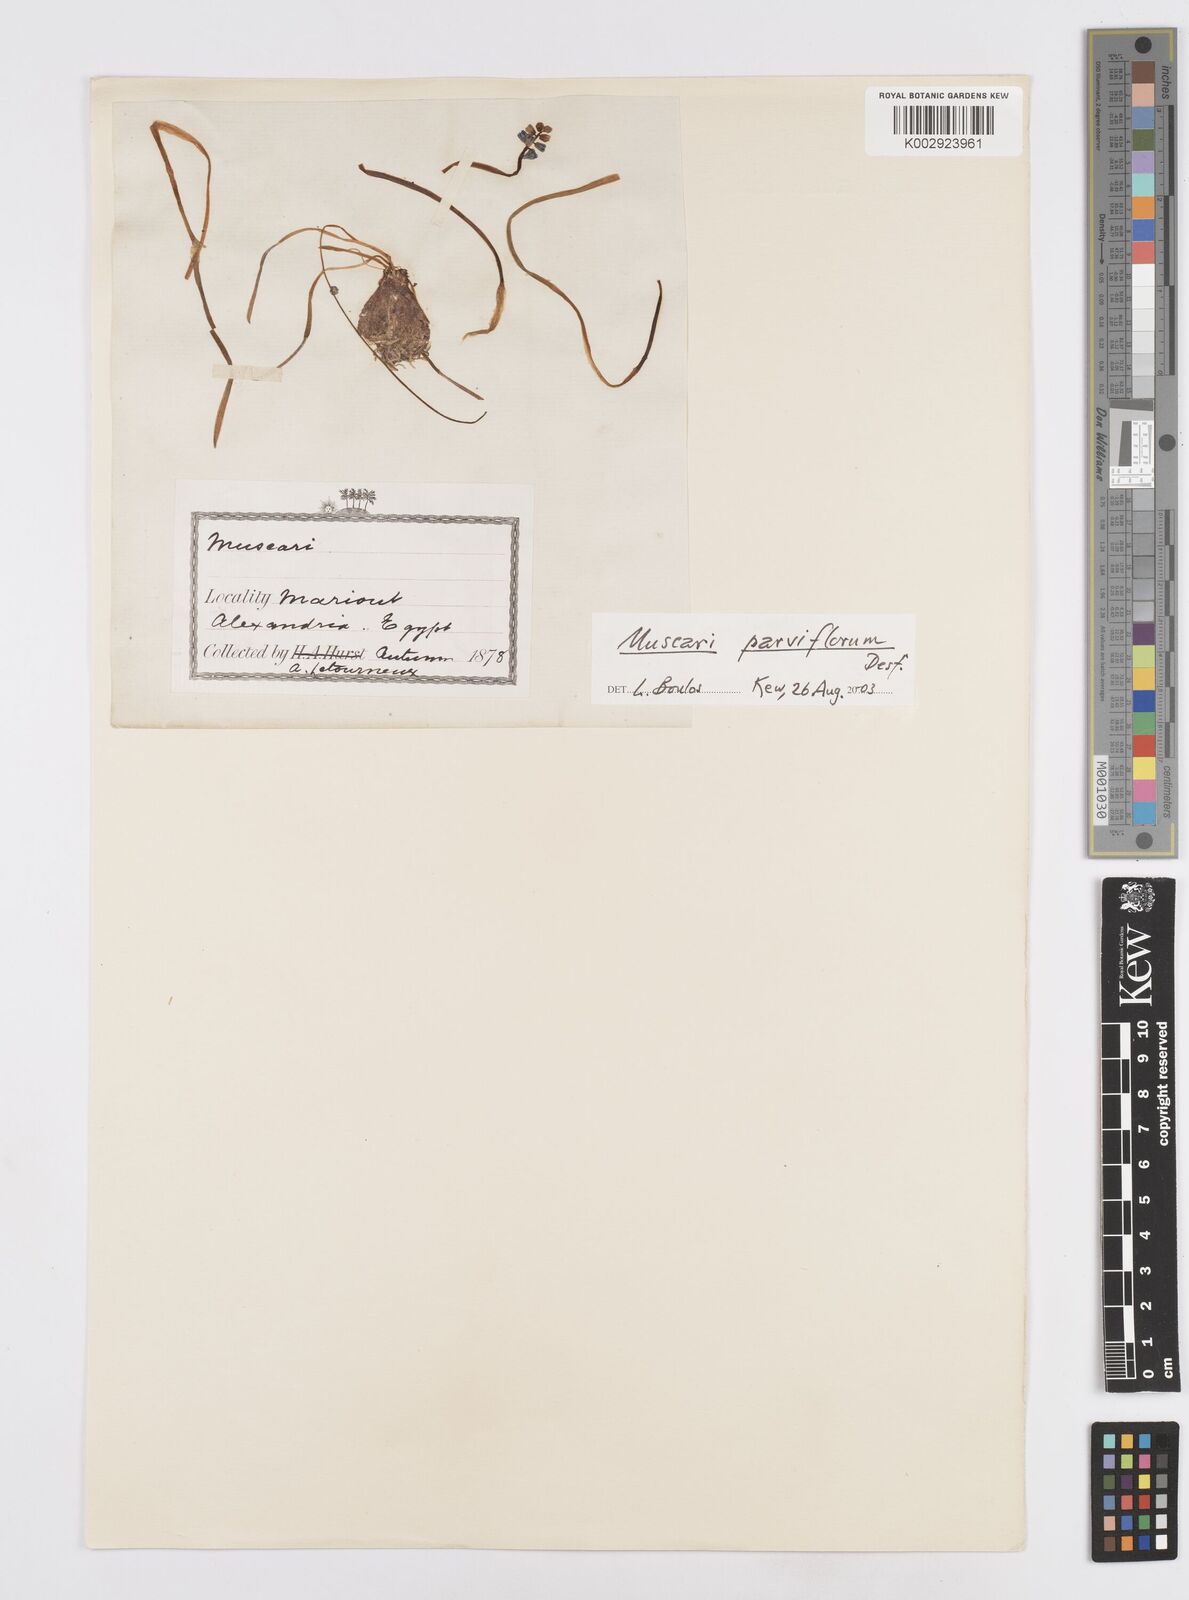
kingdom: Plantae
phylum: Tracheophyta
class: Liliopsida
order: Asparagales
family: Asparagaceae
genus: Muscari
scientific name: Muscari parviflorum
